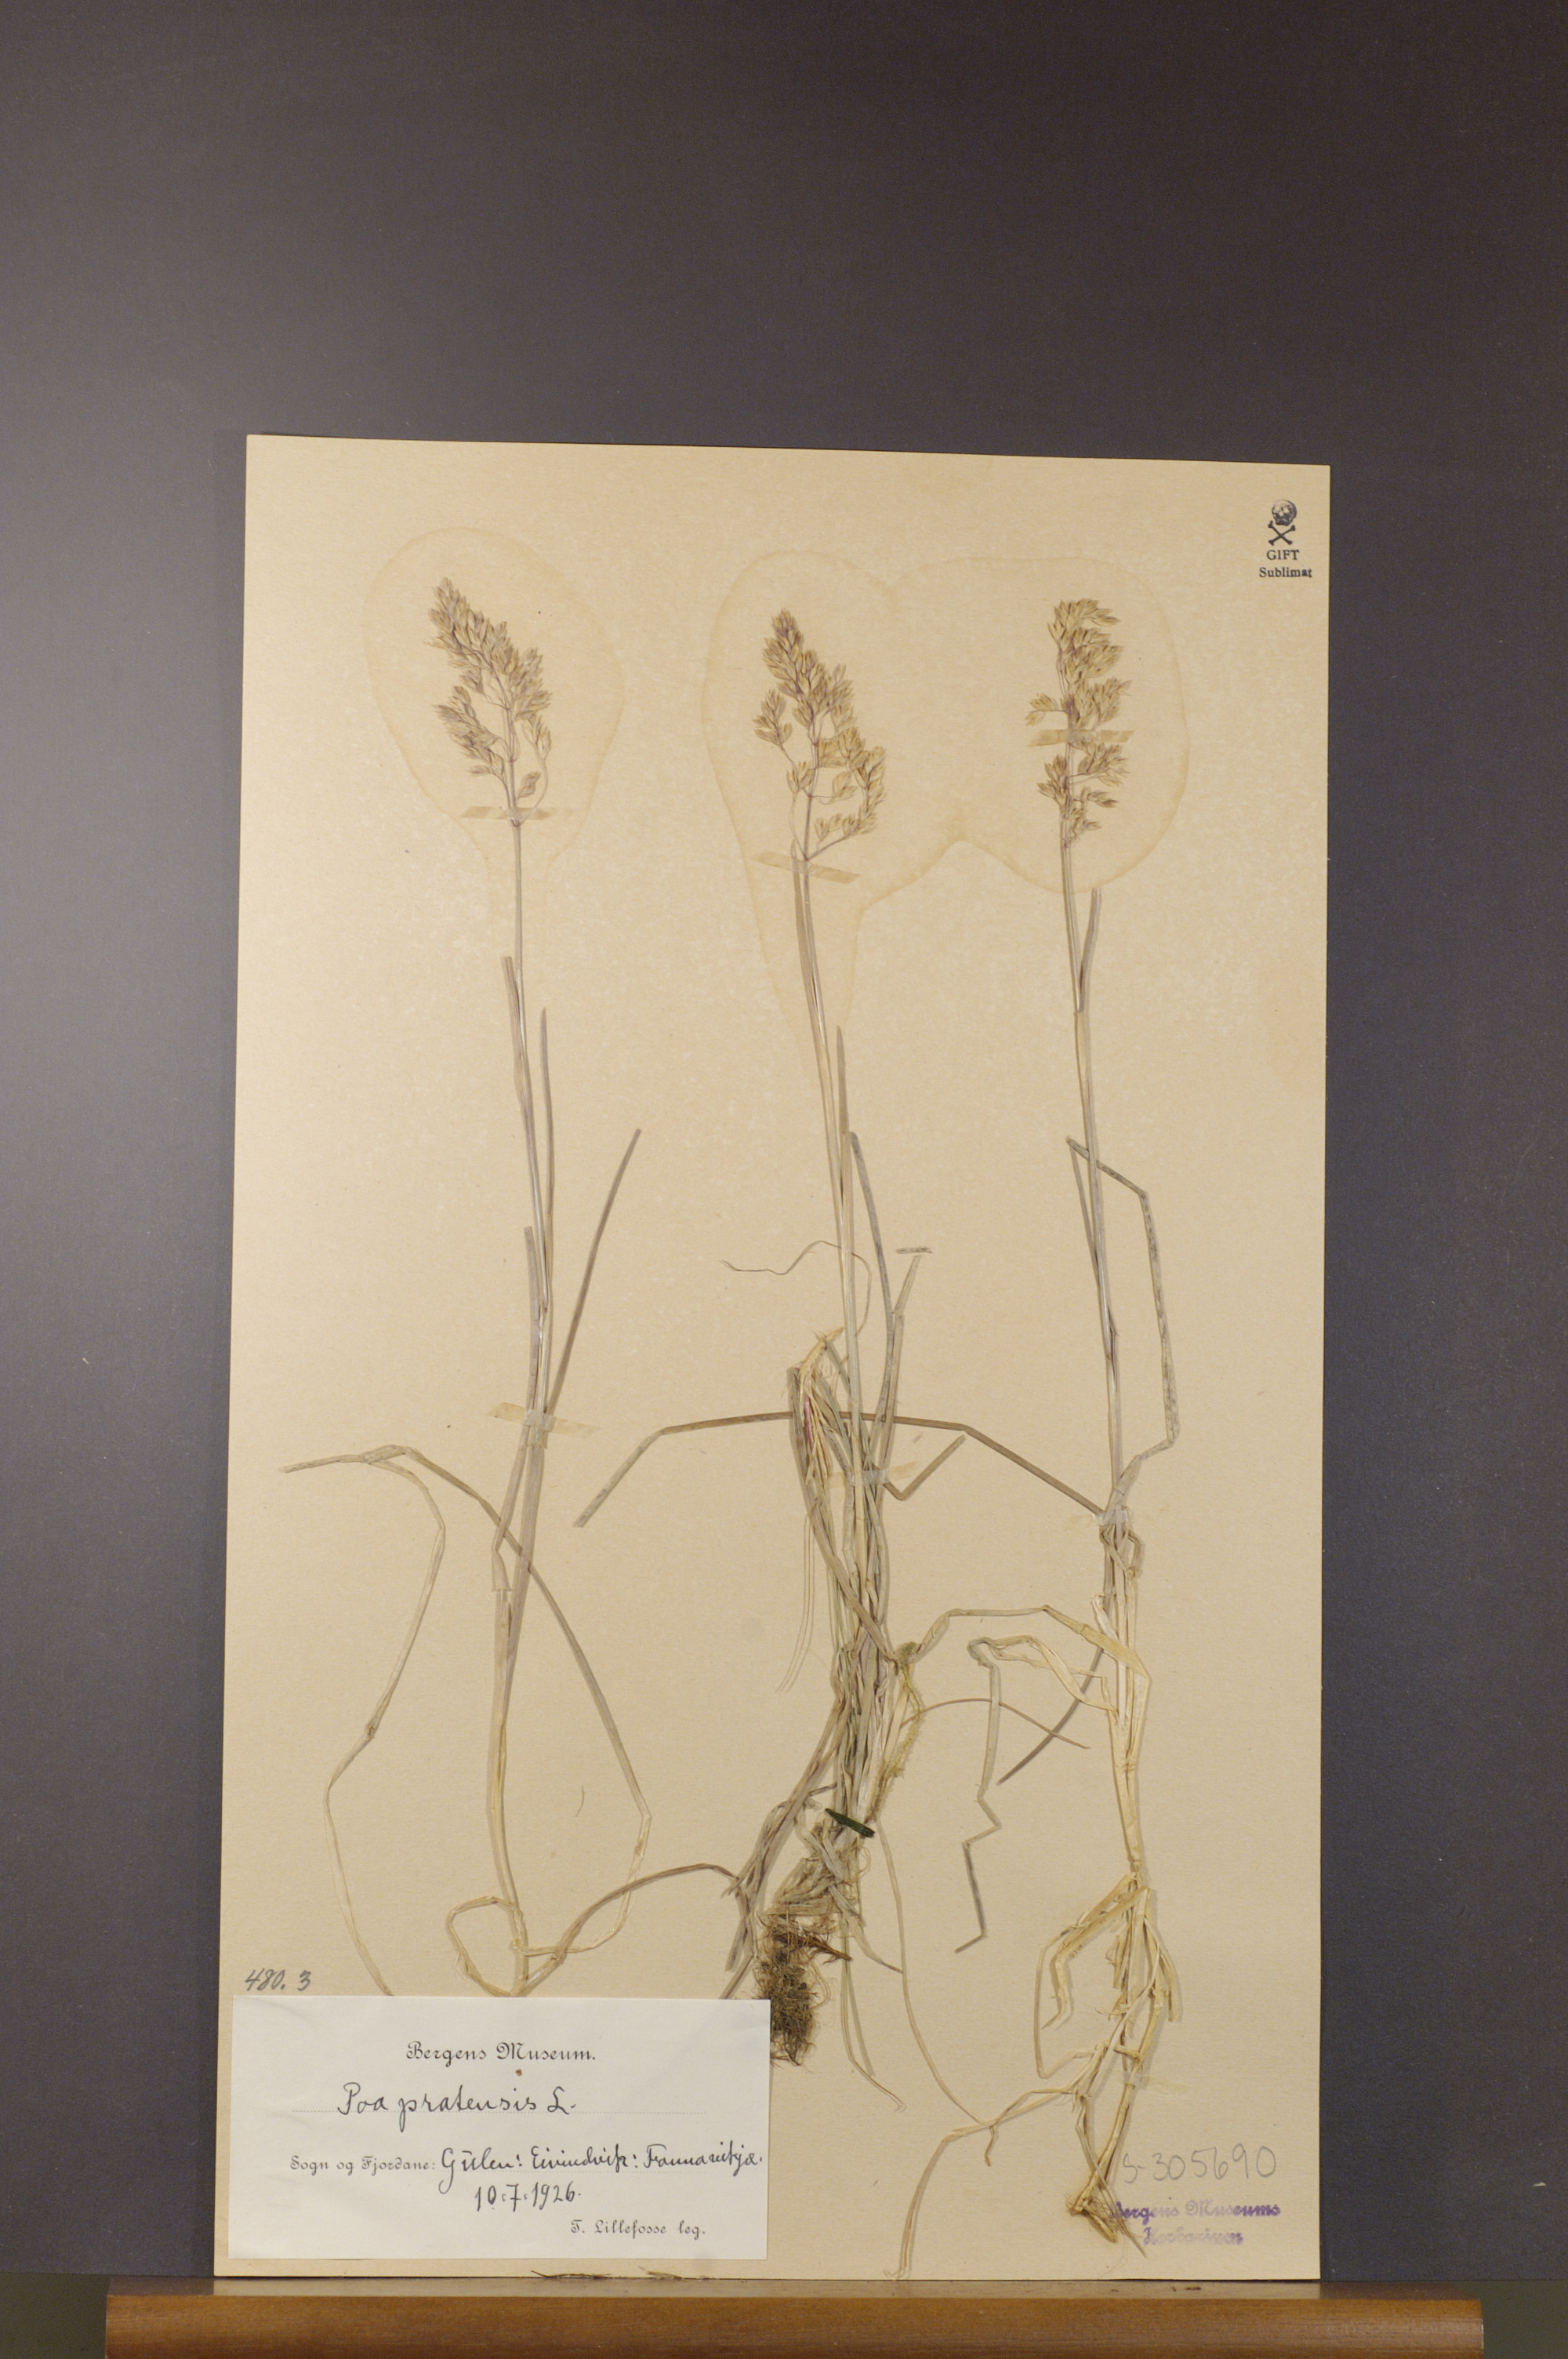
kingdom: Plantae
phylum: Tracheophyta
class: Liliopsida
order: Poales
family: Poaceae
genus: Poa
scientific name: Poa pratensis
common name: Kentucky bluegrass
